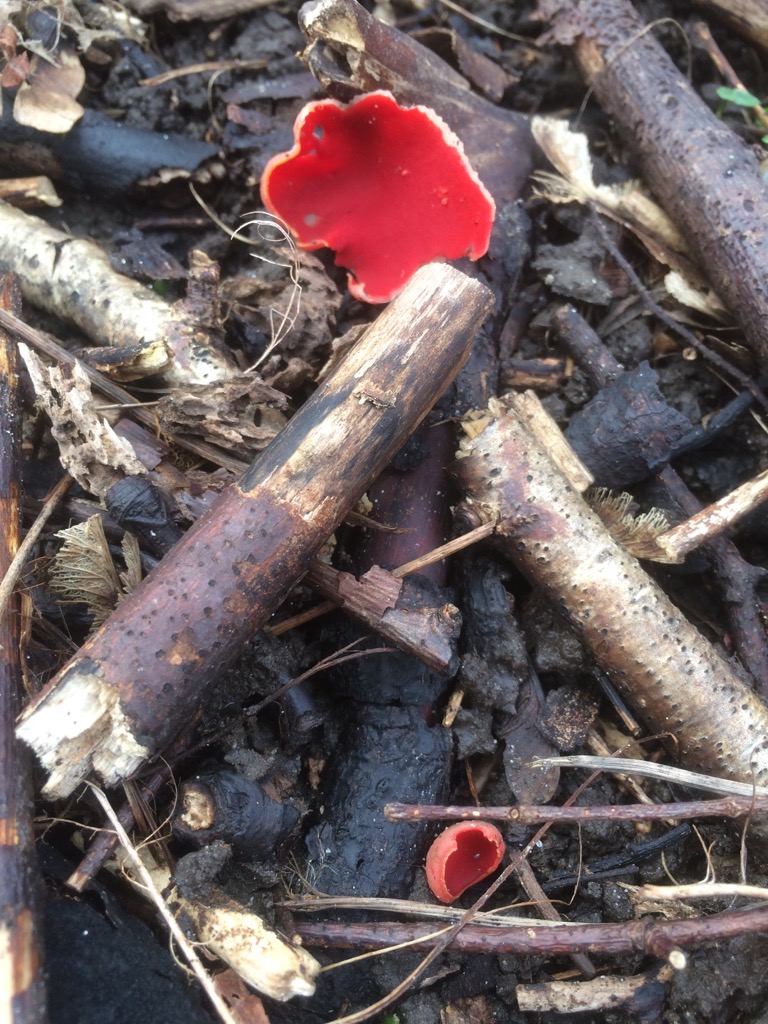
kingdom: Fungi
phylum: Ascomycota
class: Pezizomycetes
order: Pezizales
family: Sarcoscyphaceae
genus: Sarcoscypha
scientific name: Sarcoscypha austriaca
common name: krølhåret pragtbæger
